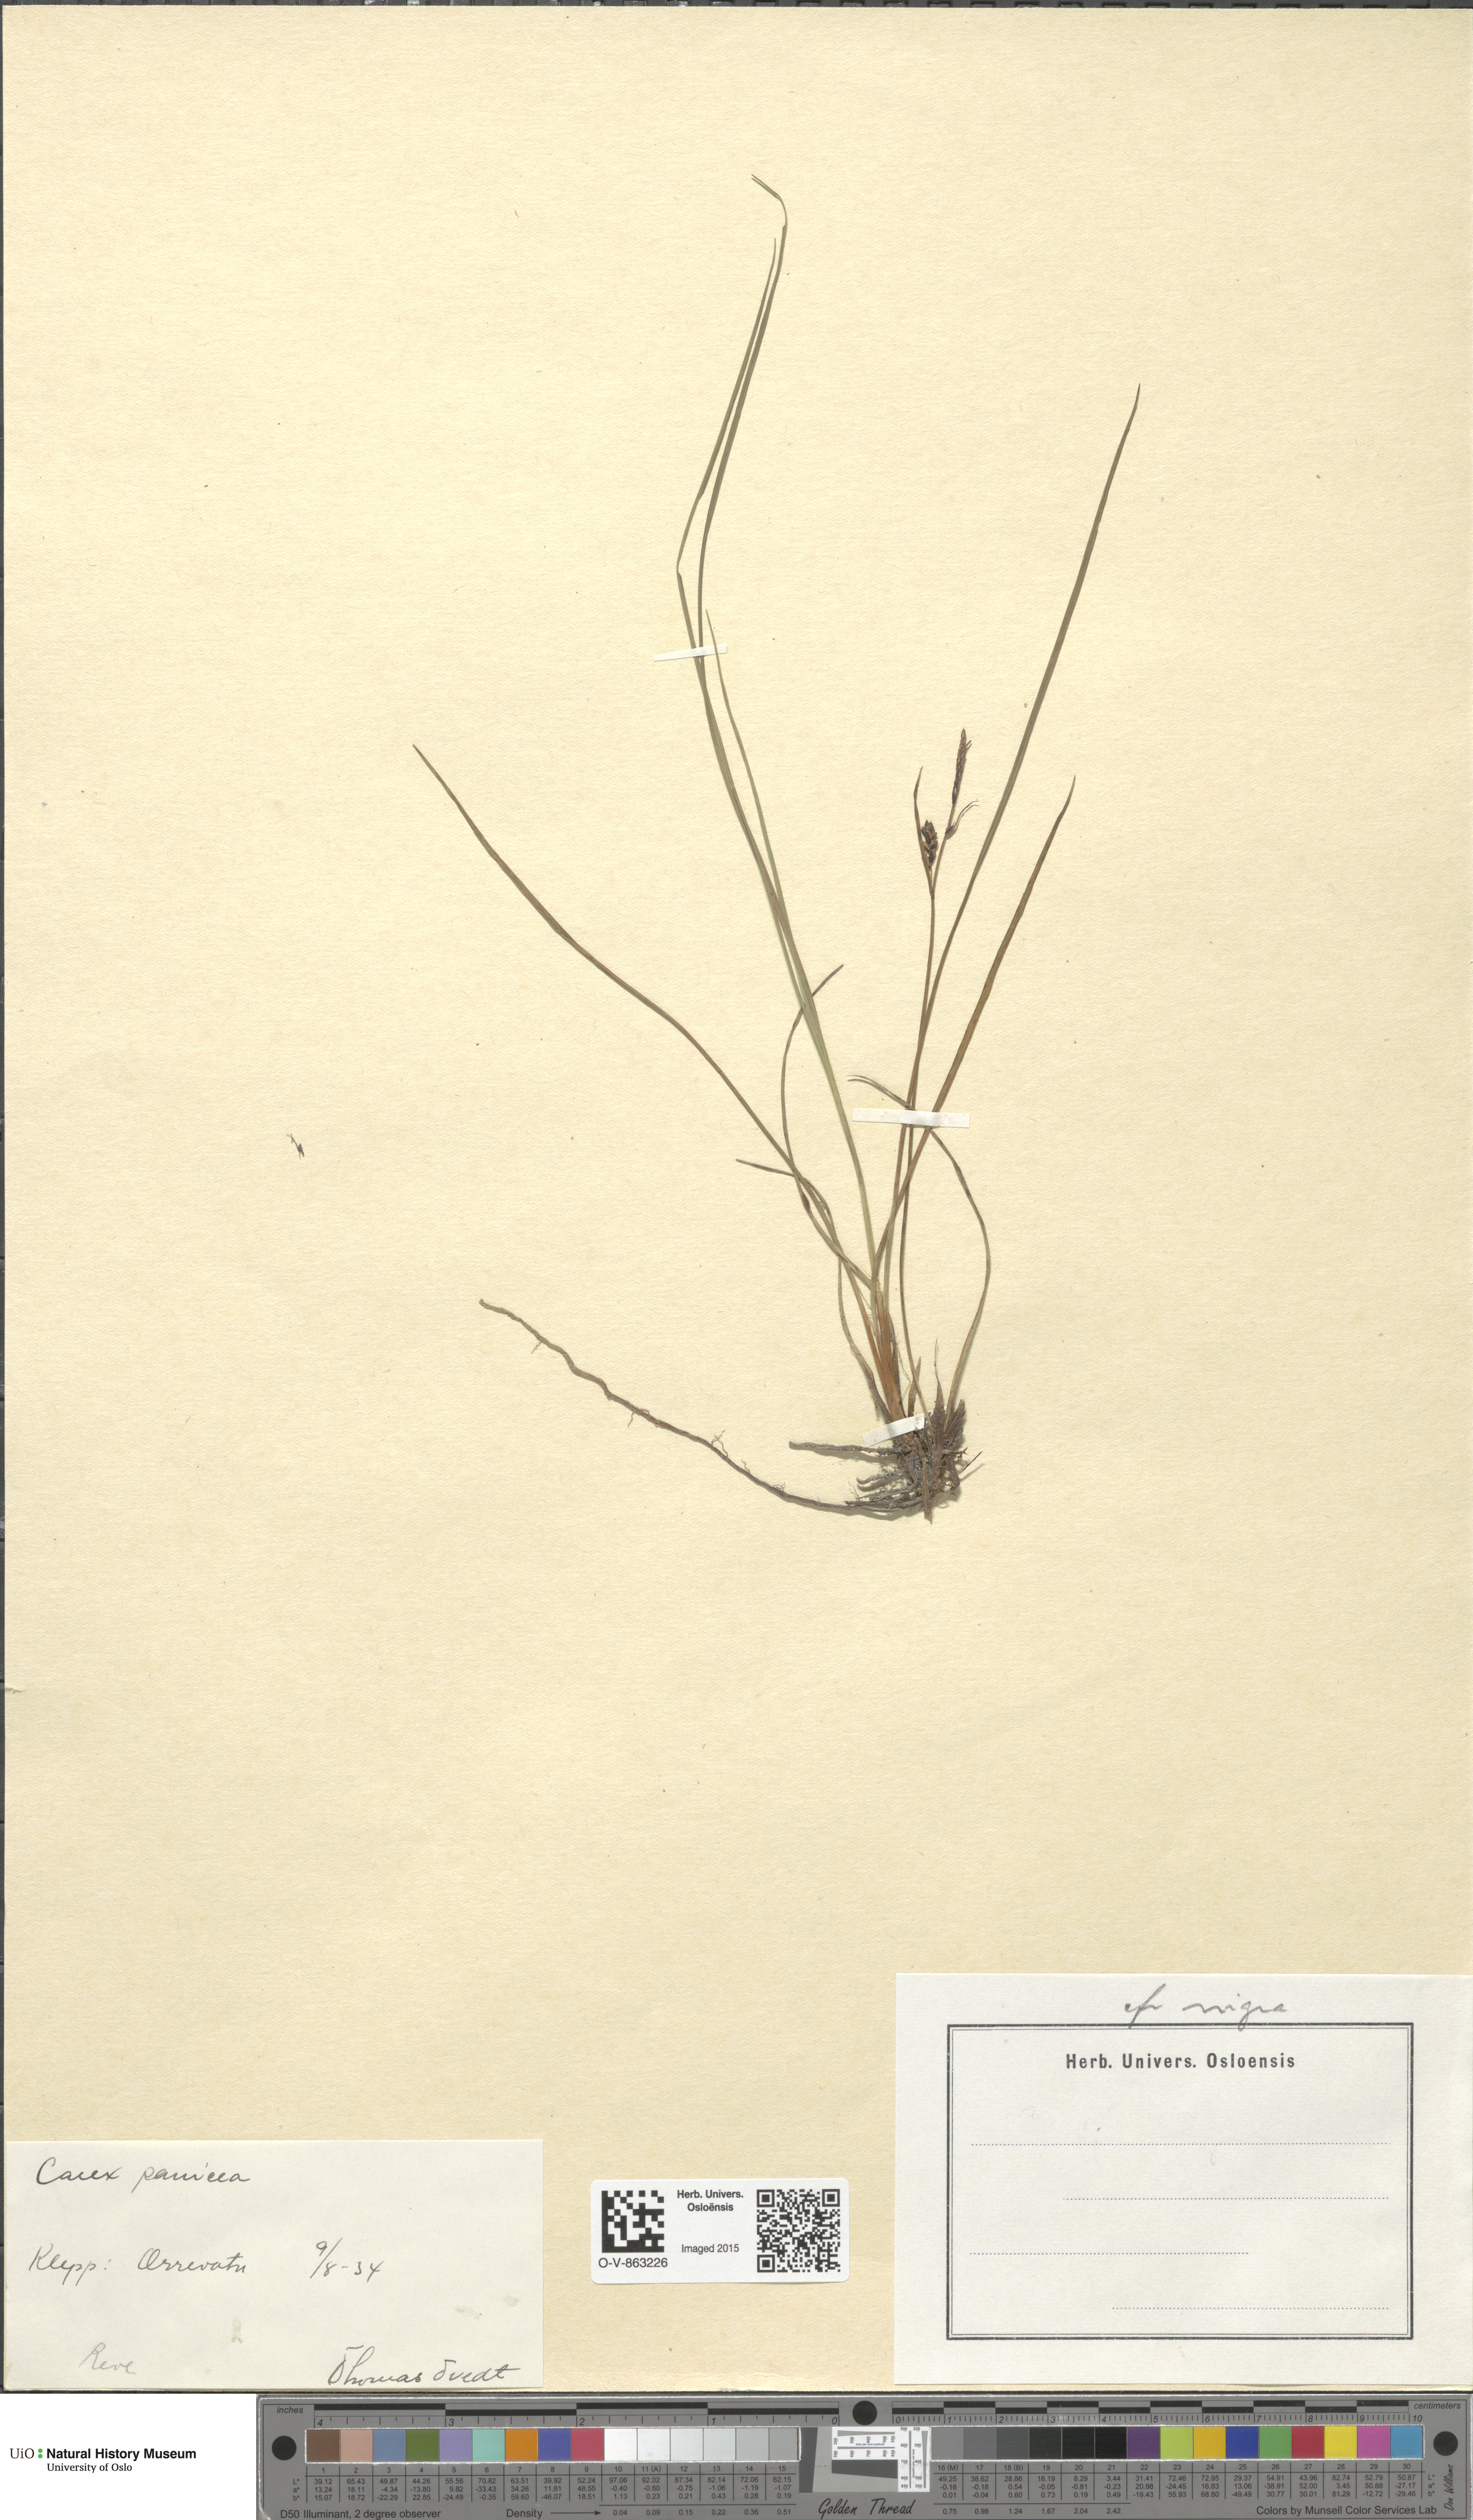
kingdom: Plantae
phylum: Tracheophyta
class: Liliopsida
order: Poales
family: Cyperaceae
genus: Carex
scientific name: Carex nigra
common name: Common sedge
